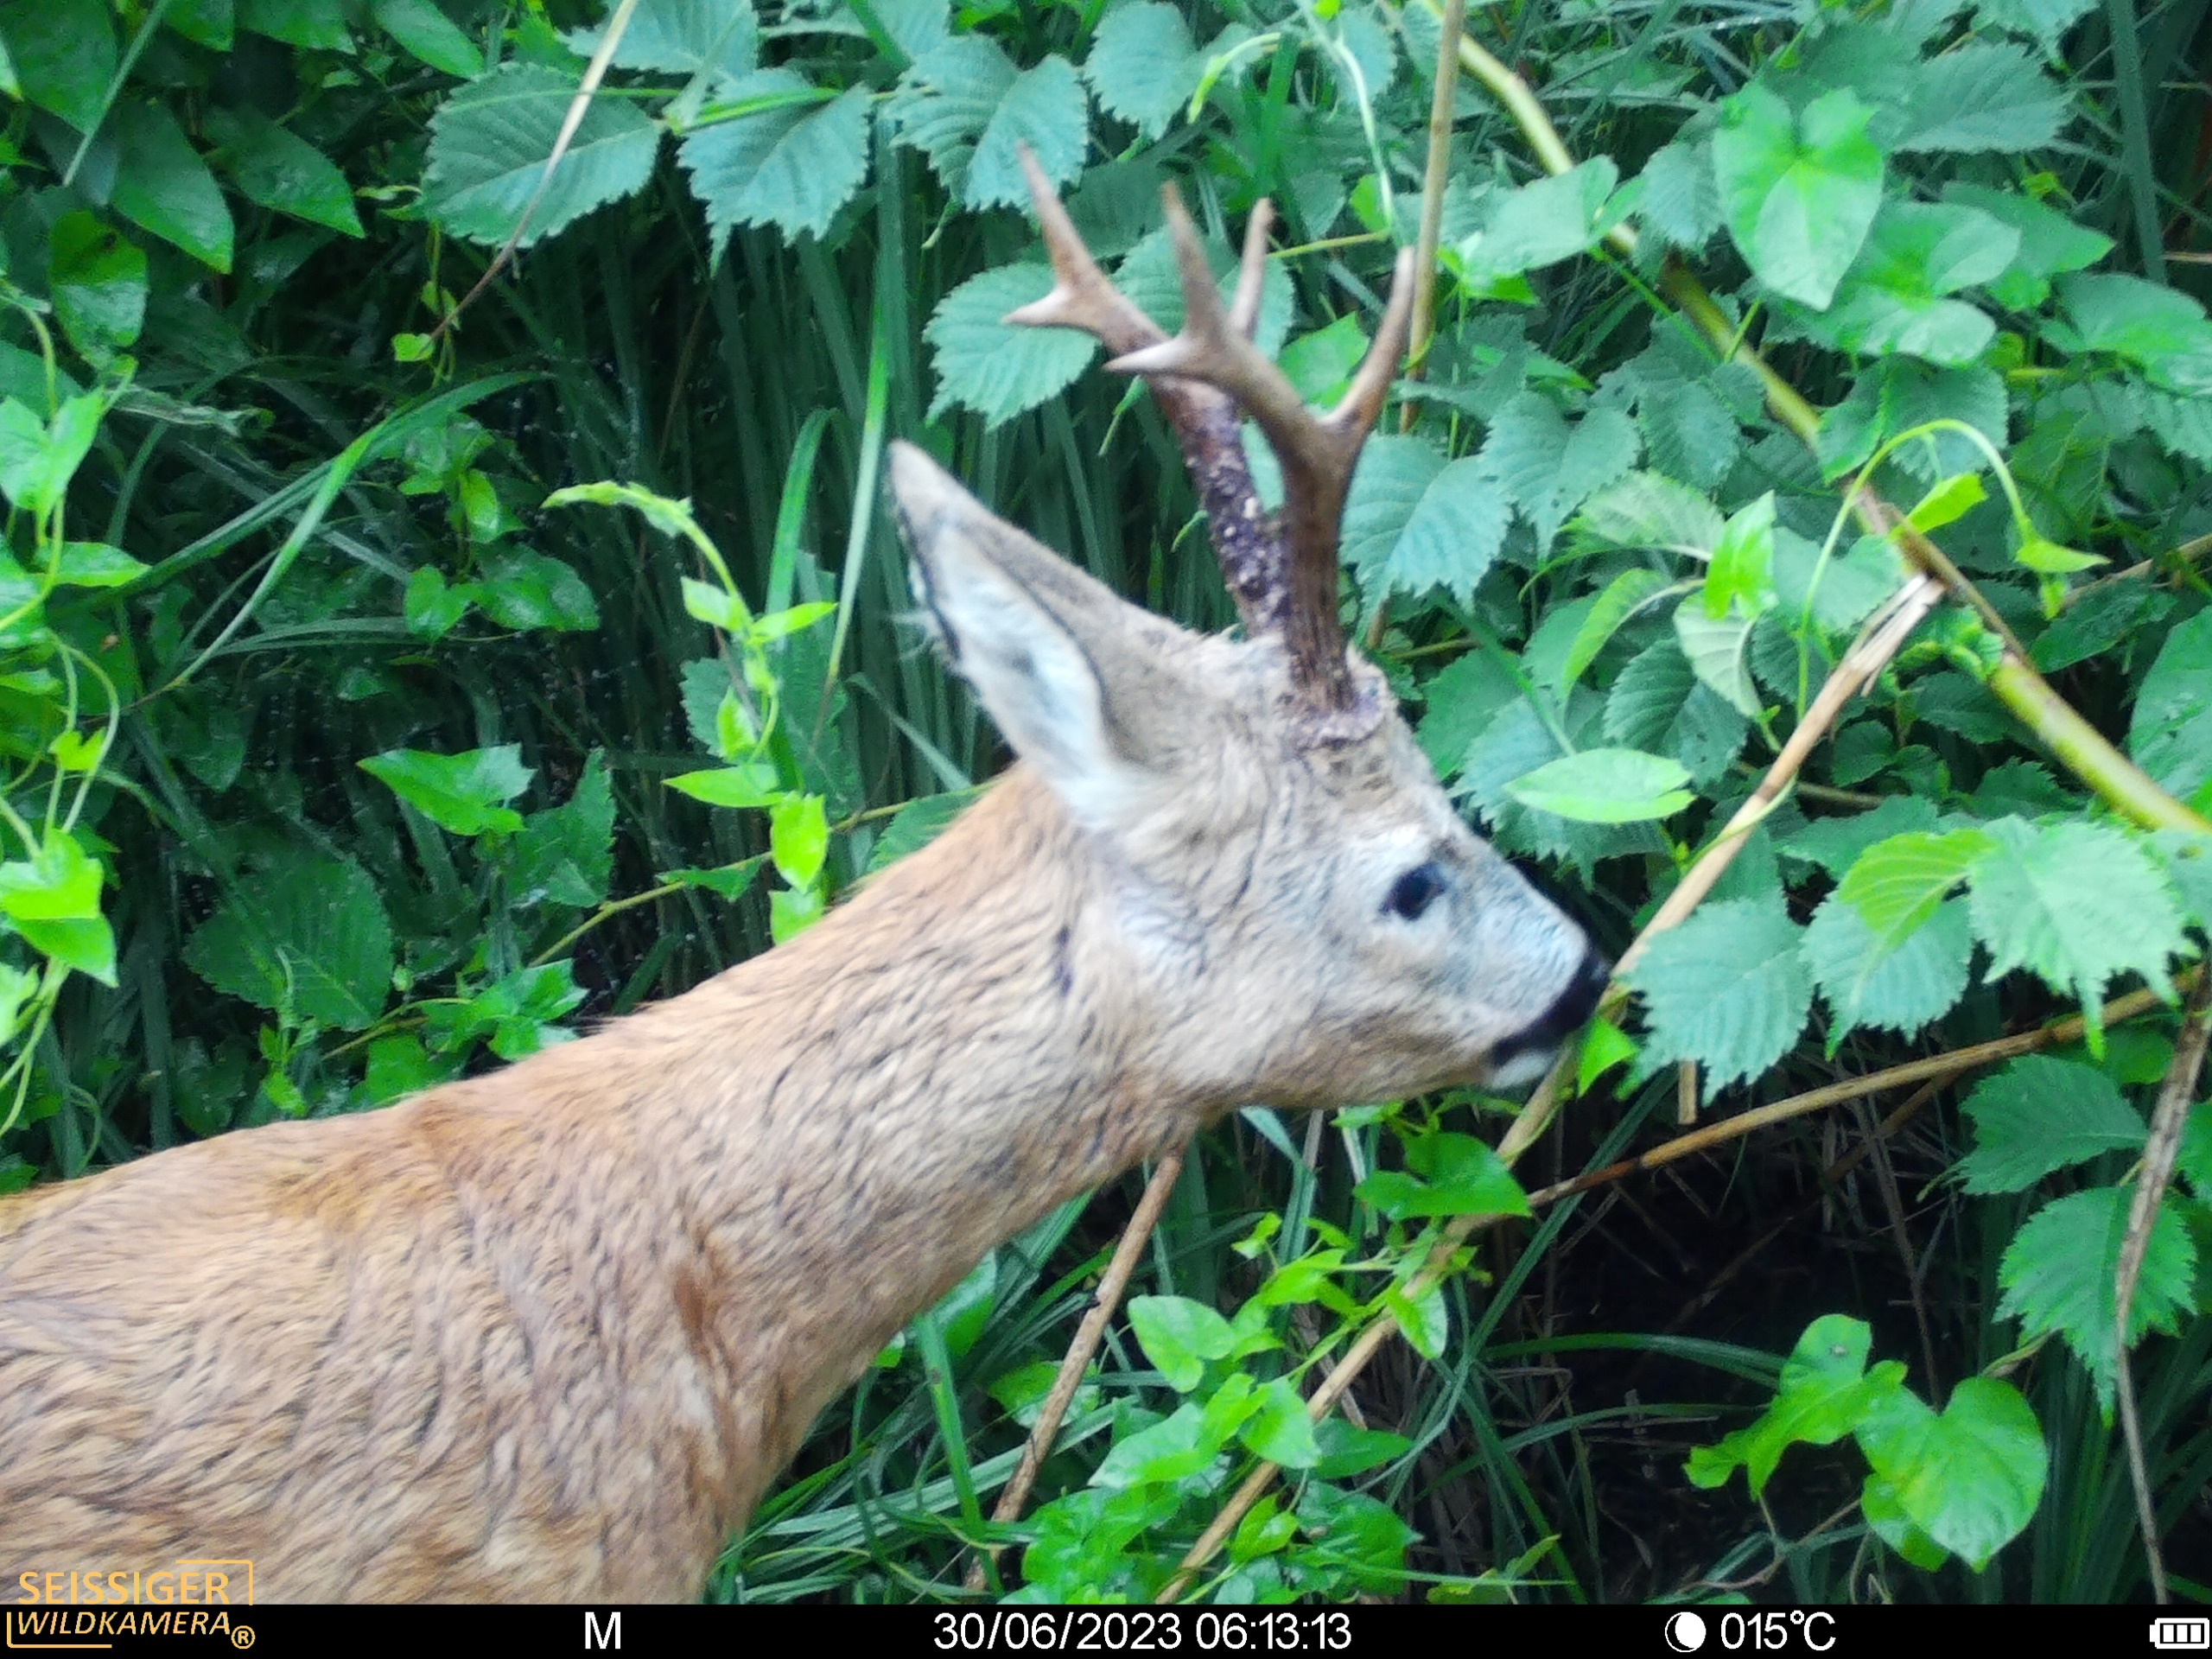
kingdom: Animalia
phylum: Chordata
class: Mammalia
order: Artiodactyla
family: Cervidae
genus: Capreolus
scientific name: Capreolus capreolus
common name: Rådyr
